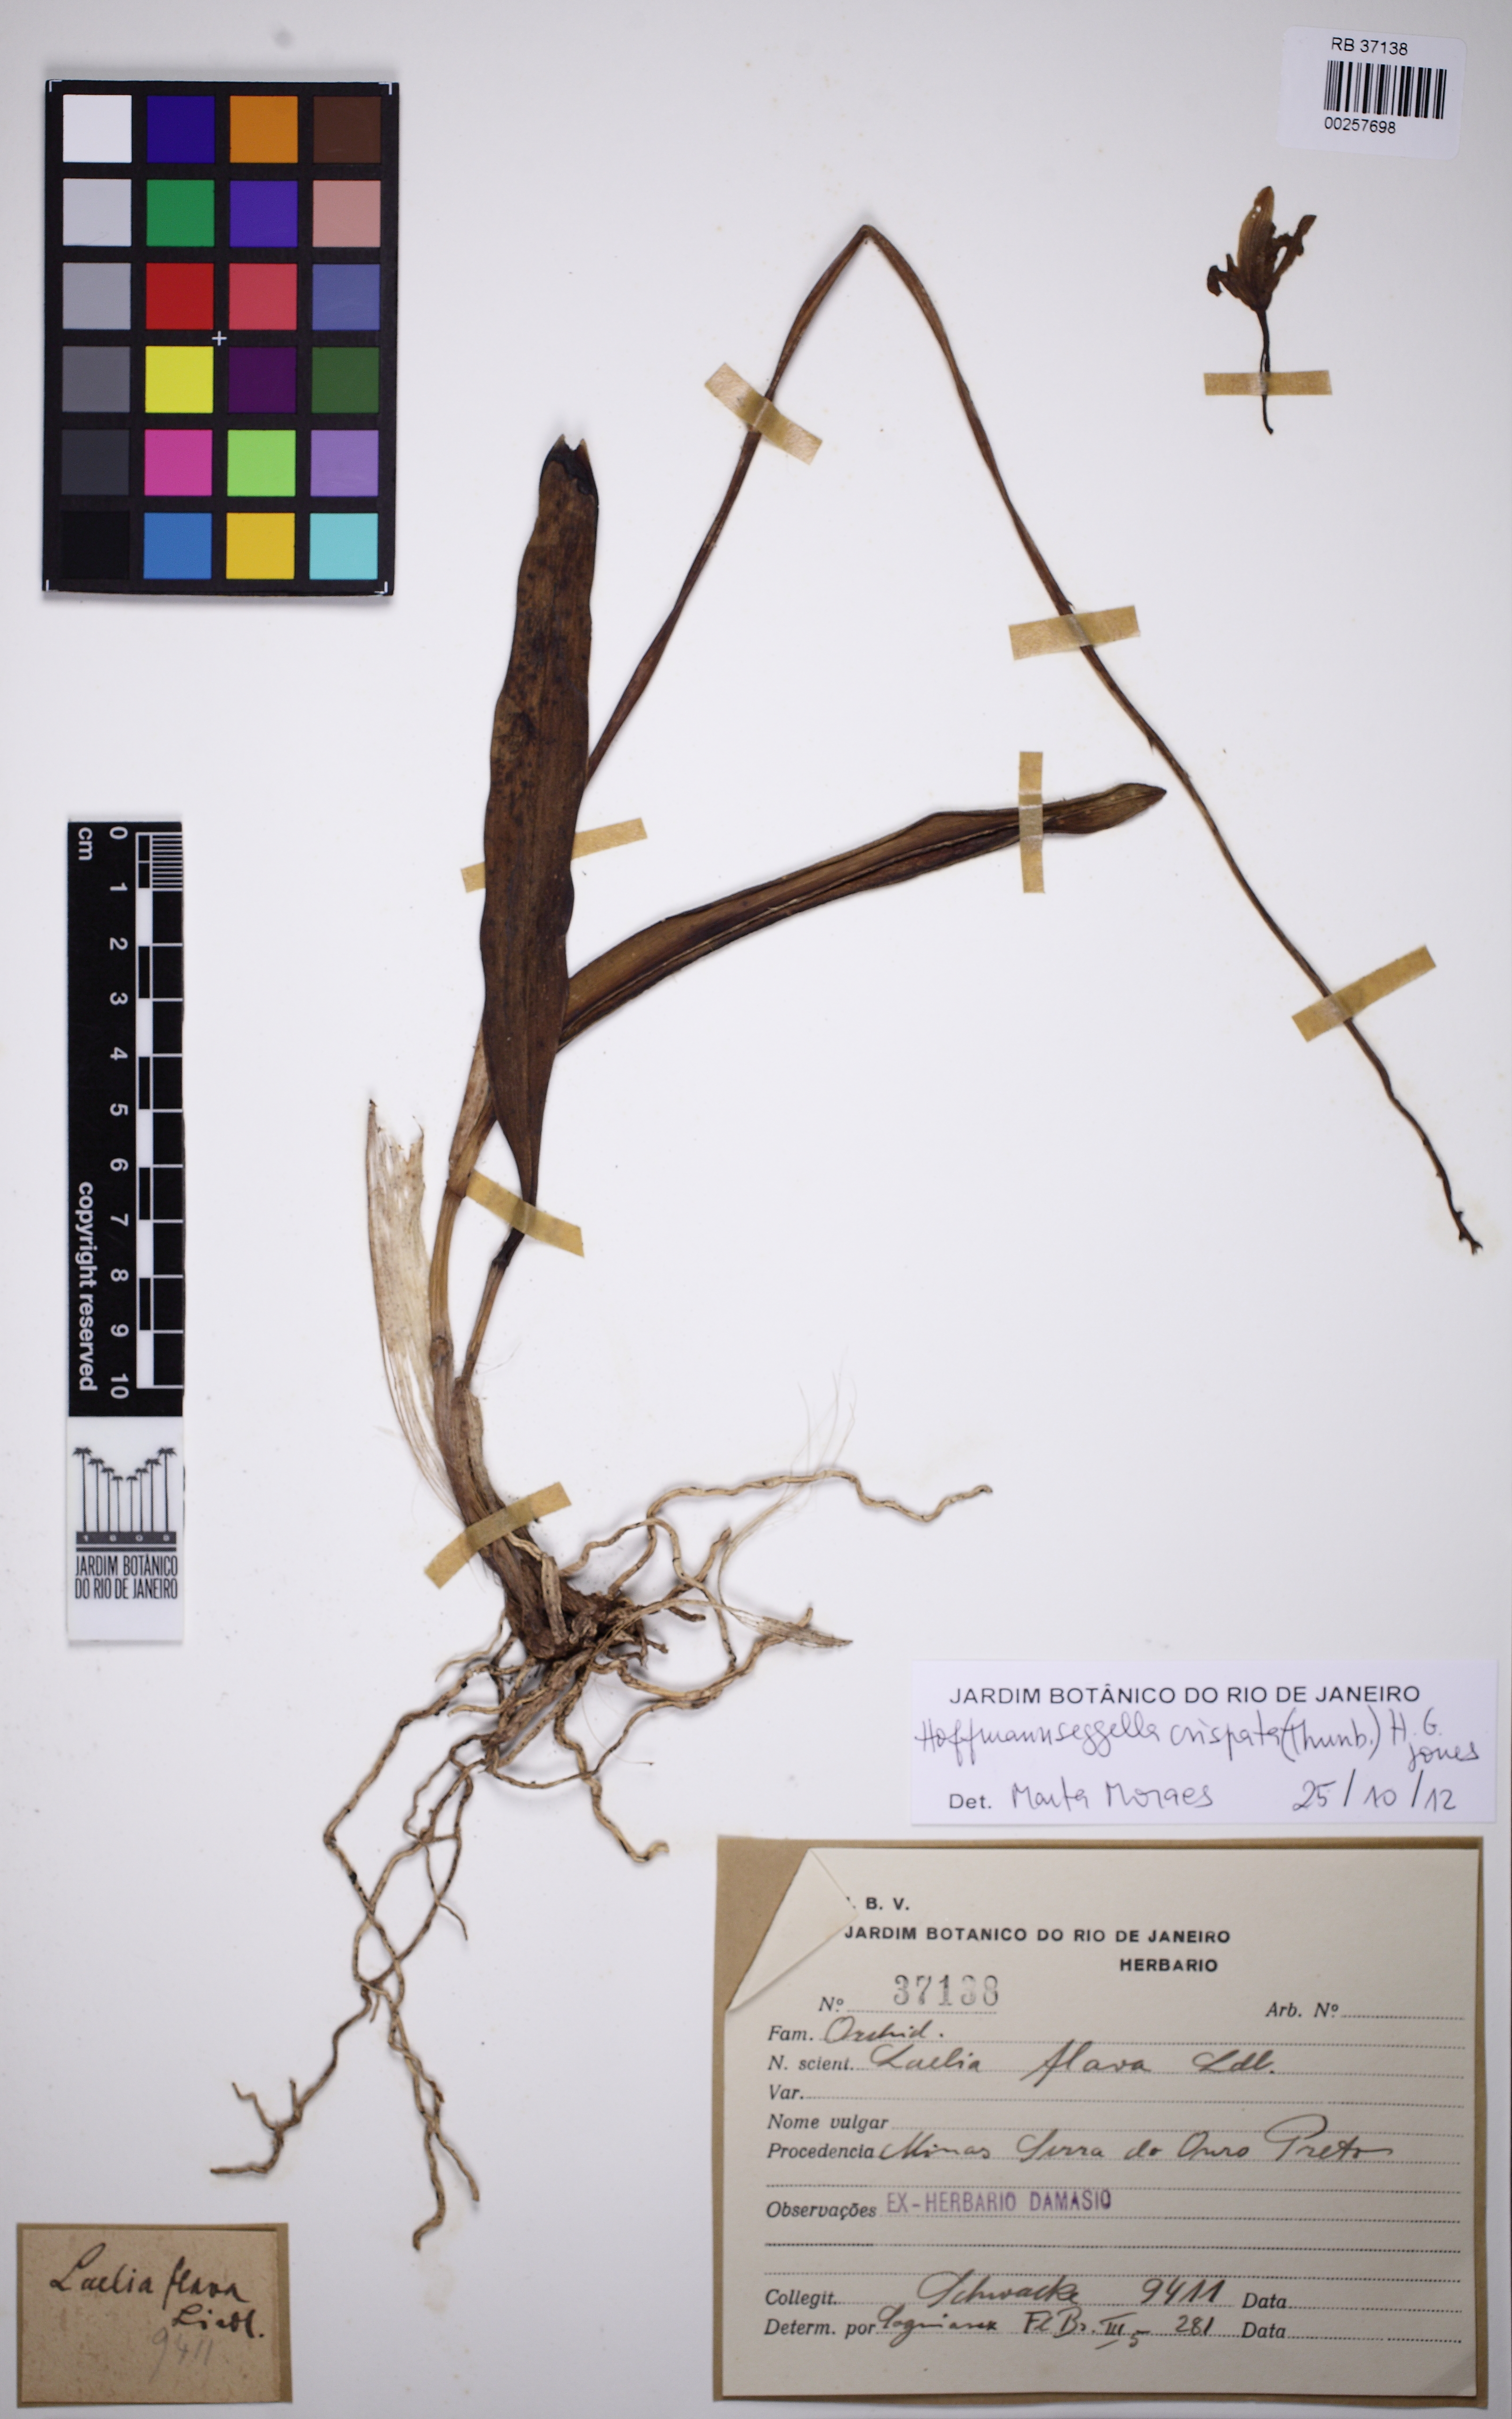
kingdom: Plantae
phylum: Tracheophyta
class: Liliopsida
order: Asparagales
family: Orchidaceae
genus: Cattleya
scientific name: Cattleya crispata
